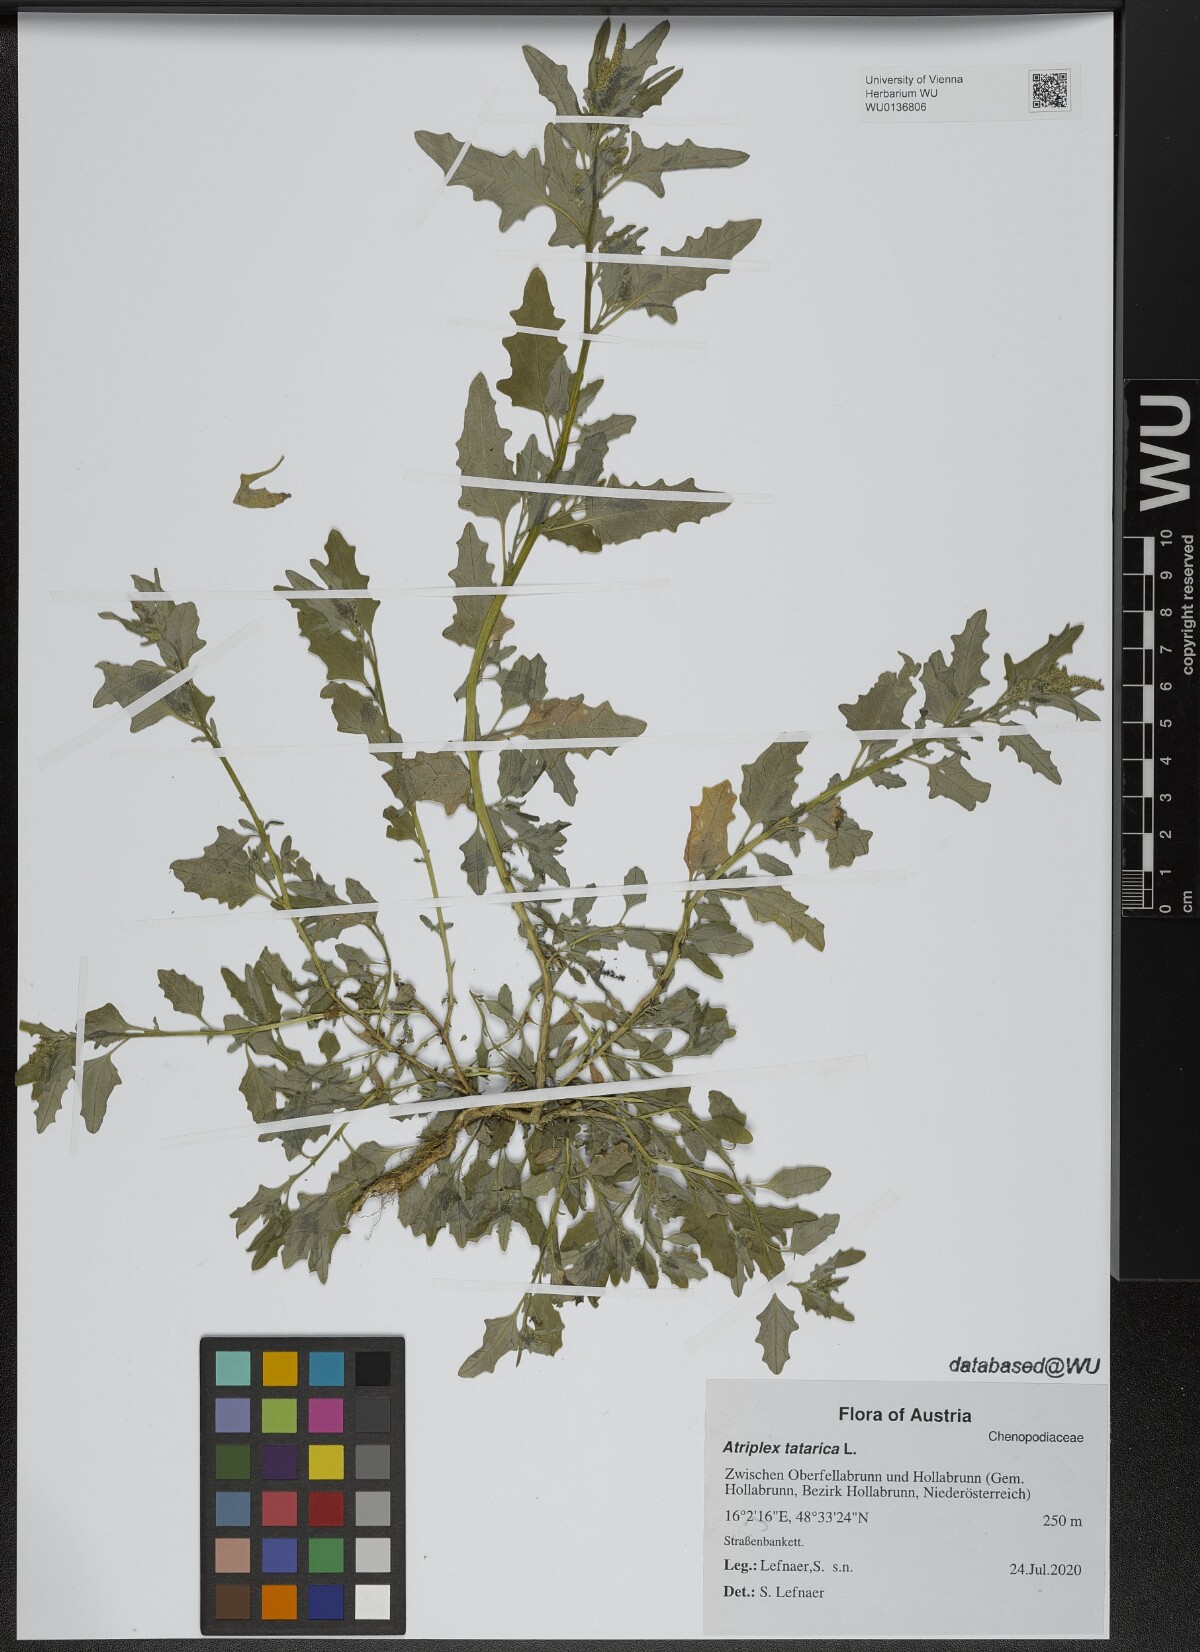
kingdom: Plantae
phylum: Tracheophyta
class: Magnoliopsida
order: Caryophyllales
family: Amaranthaceae
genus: Atriplex
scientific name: Atriplex tatarica
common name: Tatarian orache
